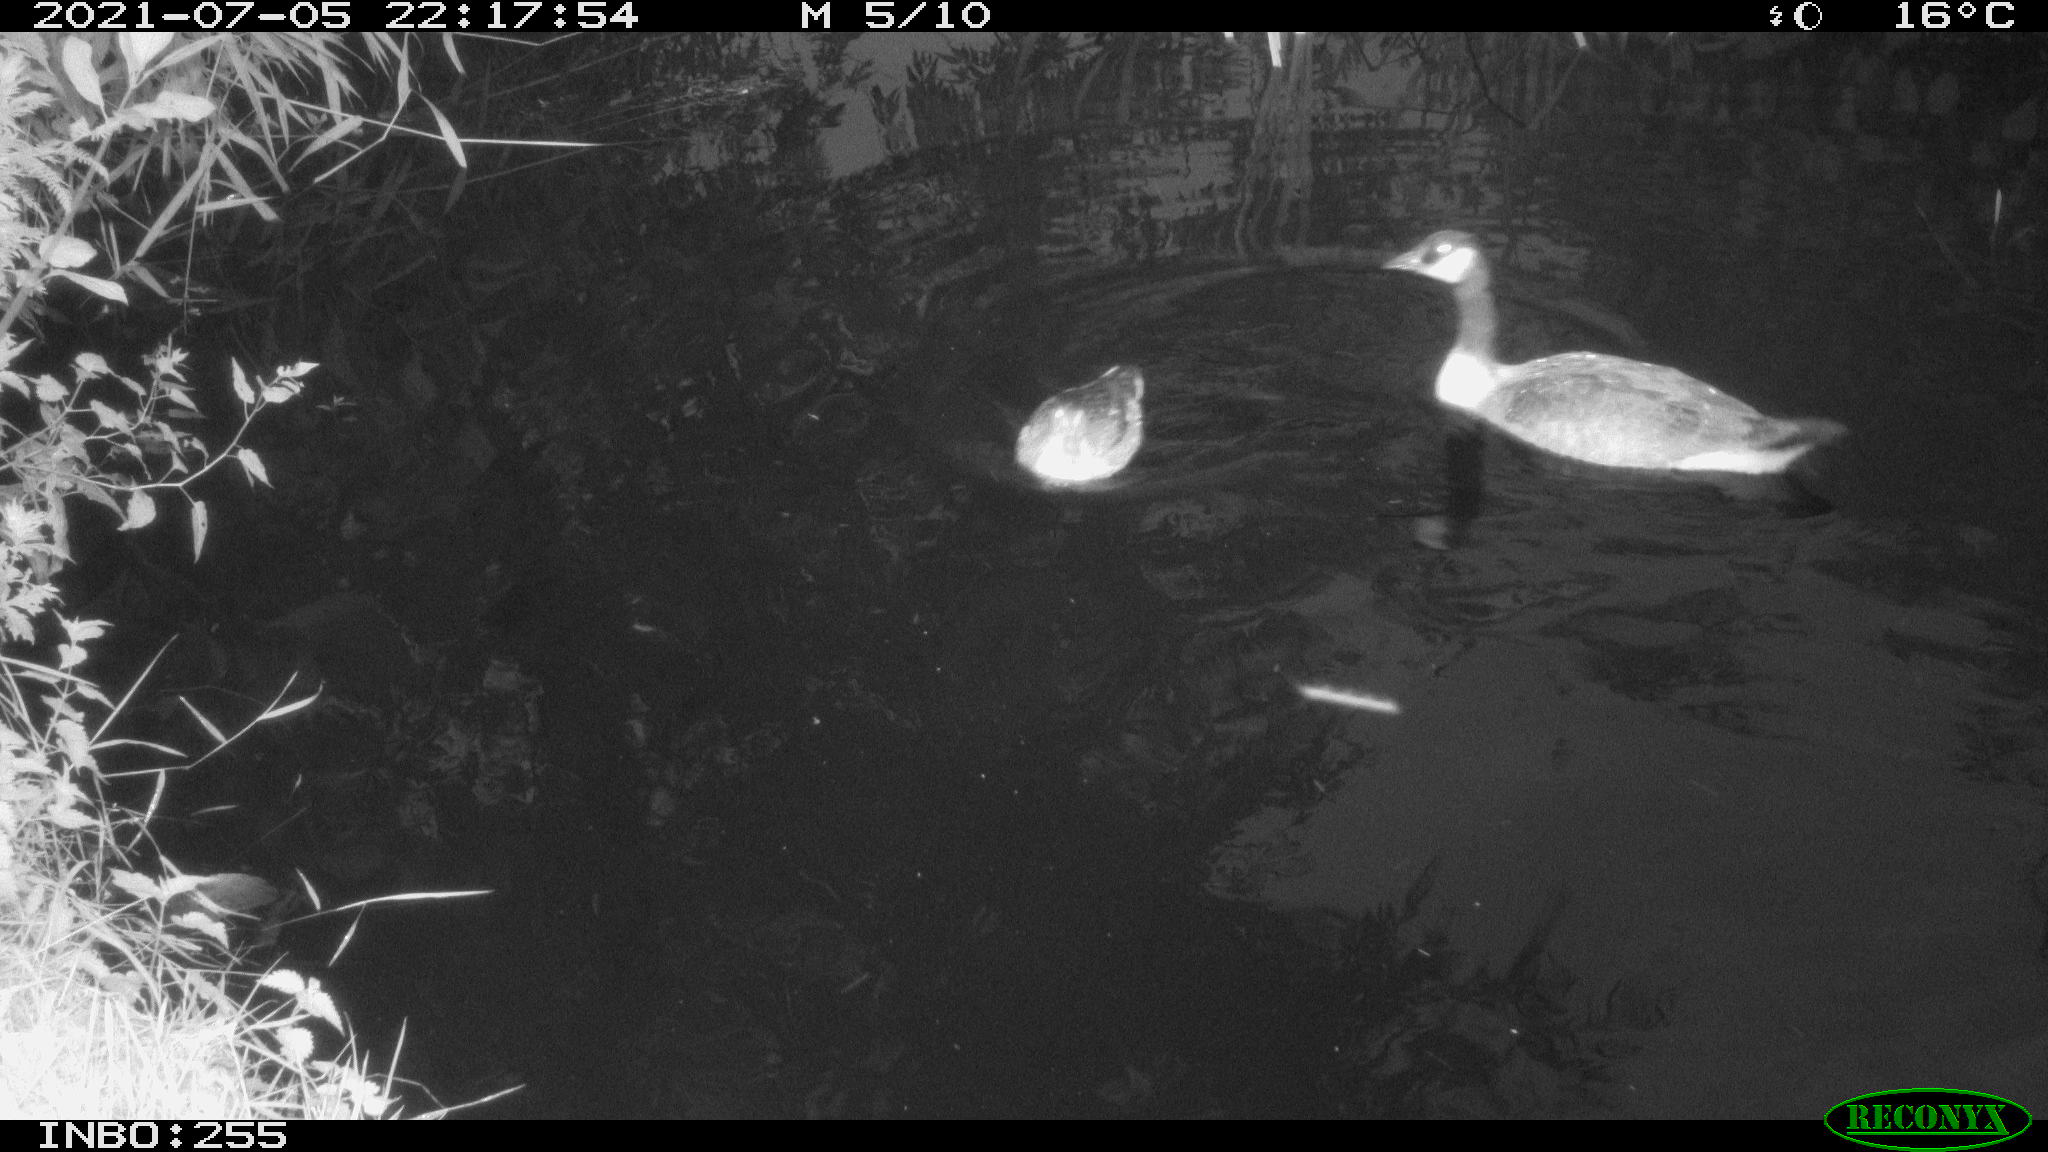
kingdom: Animalia
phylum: Chordata
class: Aves
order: Anseriformes
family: Anatidae
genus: Branta
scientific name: Branta canadensis
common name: Canada goose
